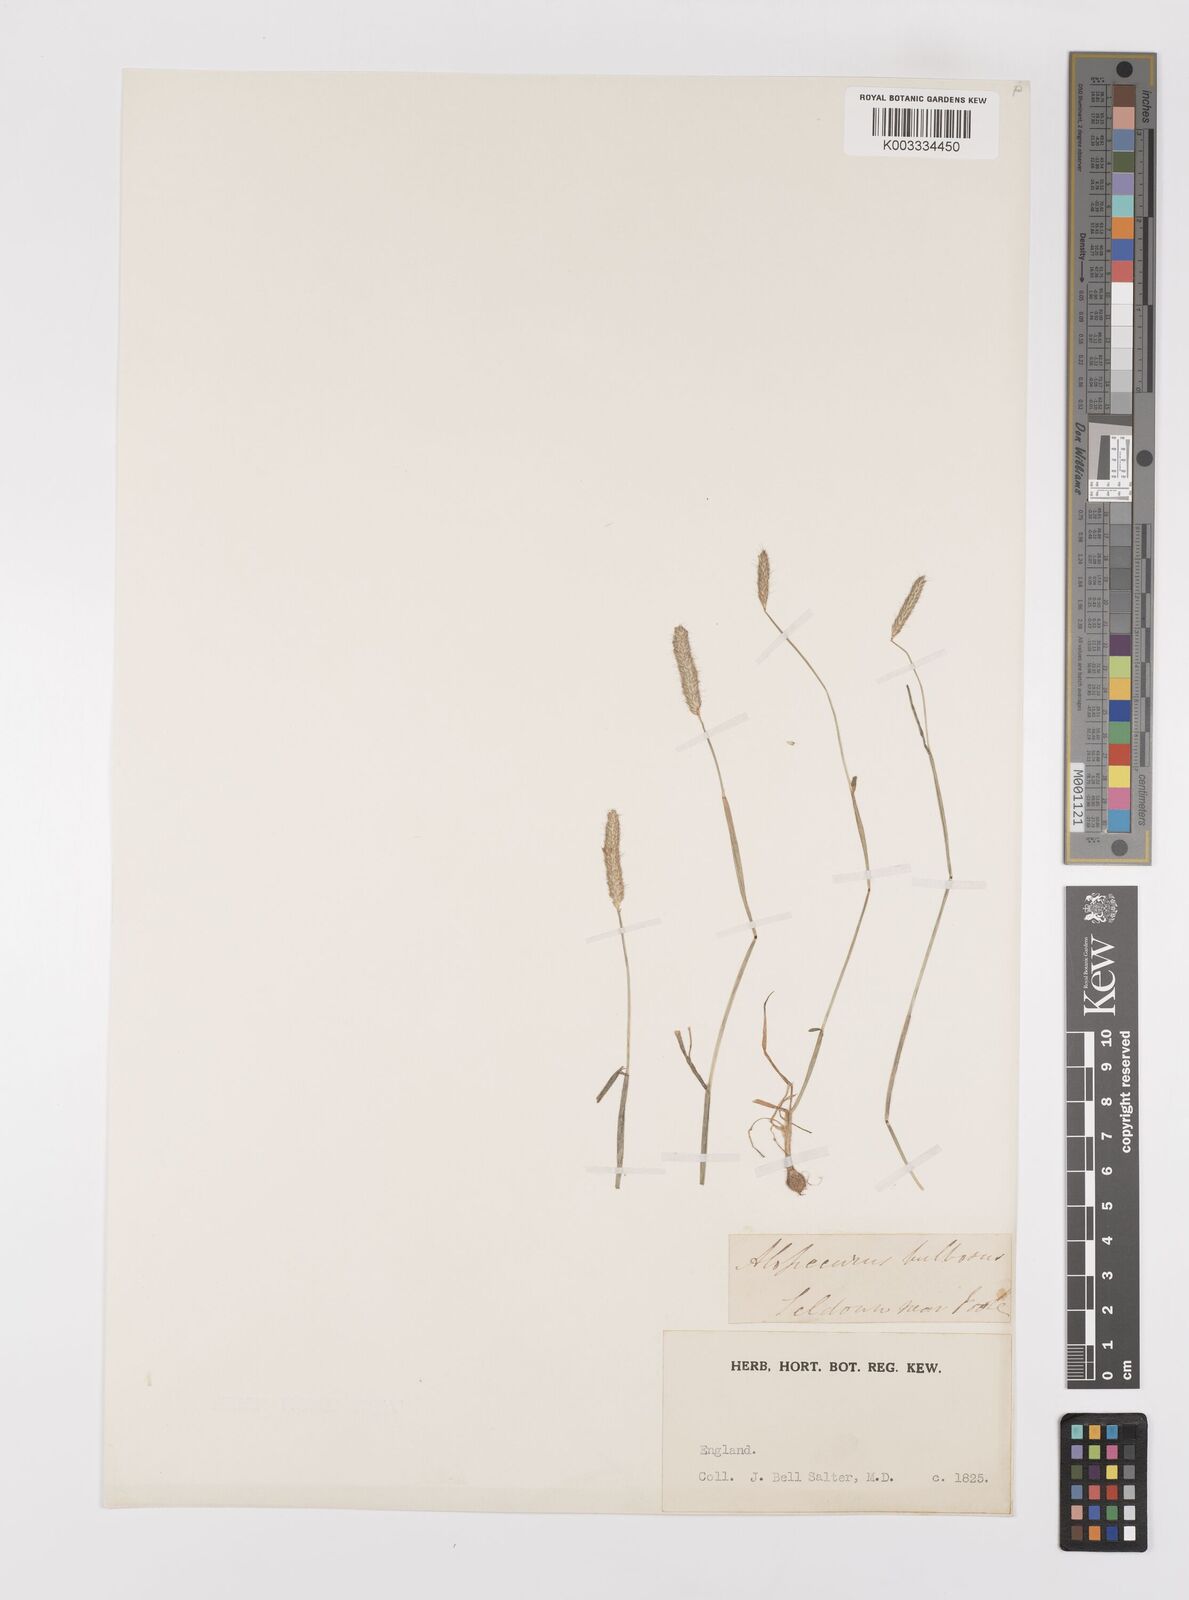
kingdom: Plantae
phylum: Tracheophyta
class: Liliopsida
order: Poales
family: Poaceae
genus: Alopecurus
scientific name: Alopecurus bulbosus
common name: Bulbous foxtail
